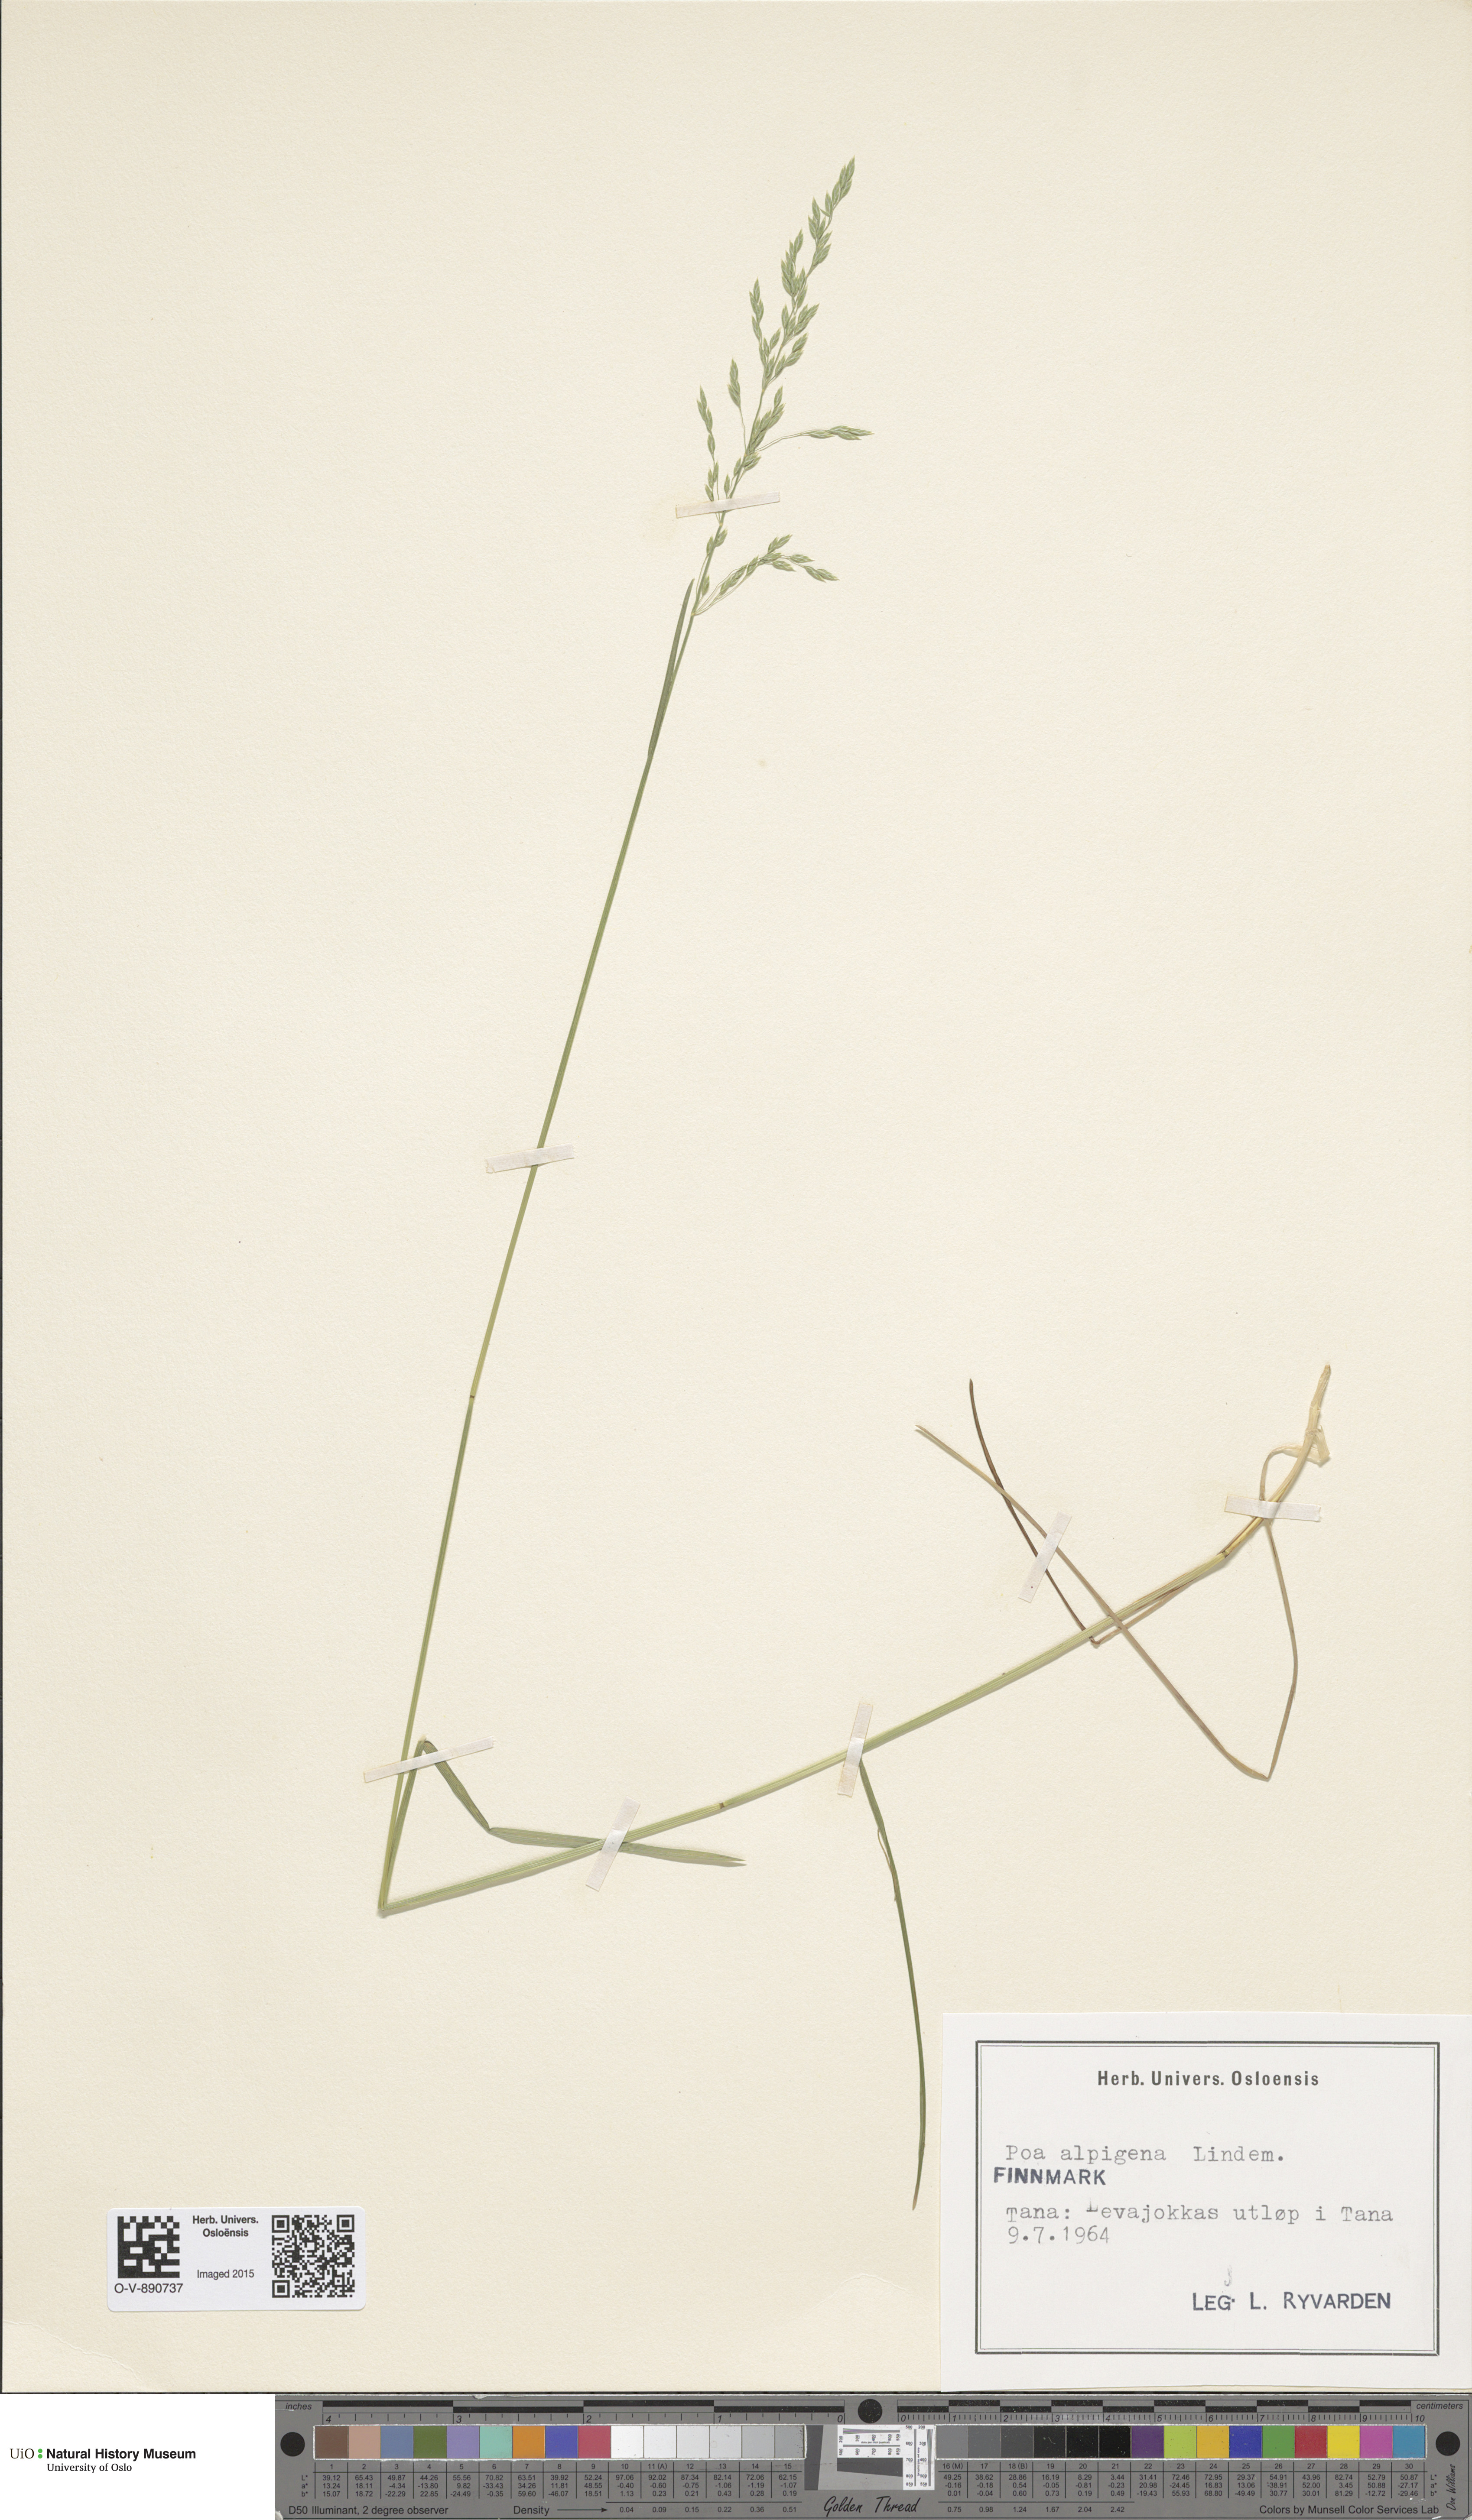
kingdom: Plantae
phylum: Tracheophyta
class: Liliopsida
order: Poales
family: Poaceae
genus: Poa
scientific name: Poa alpigena
